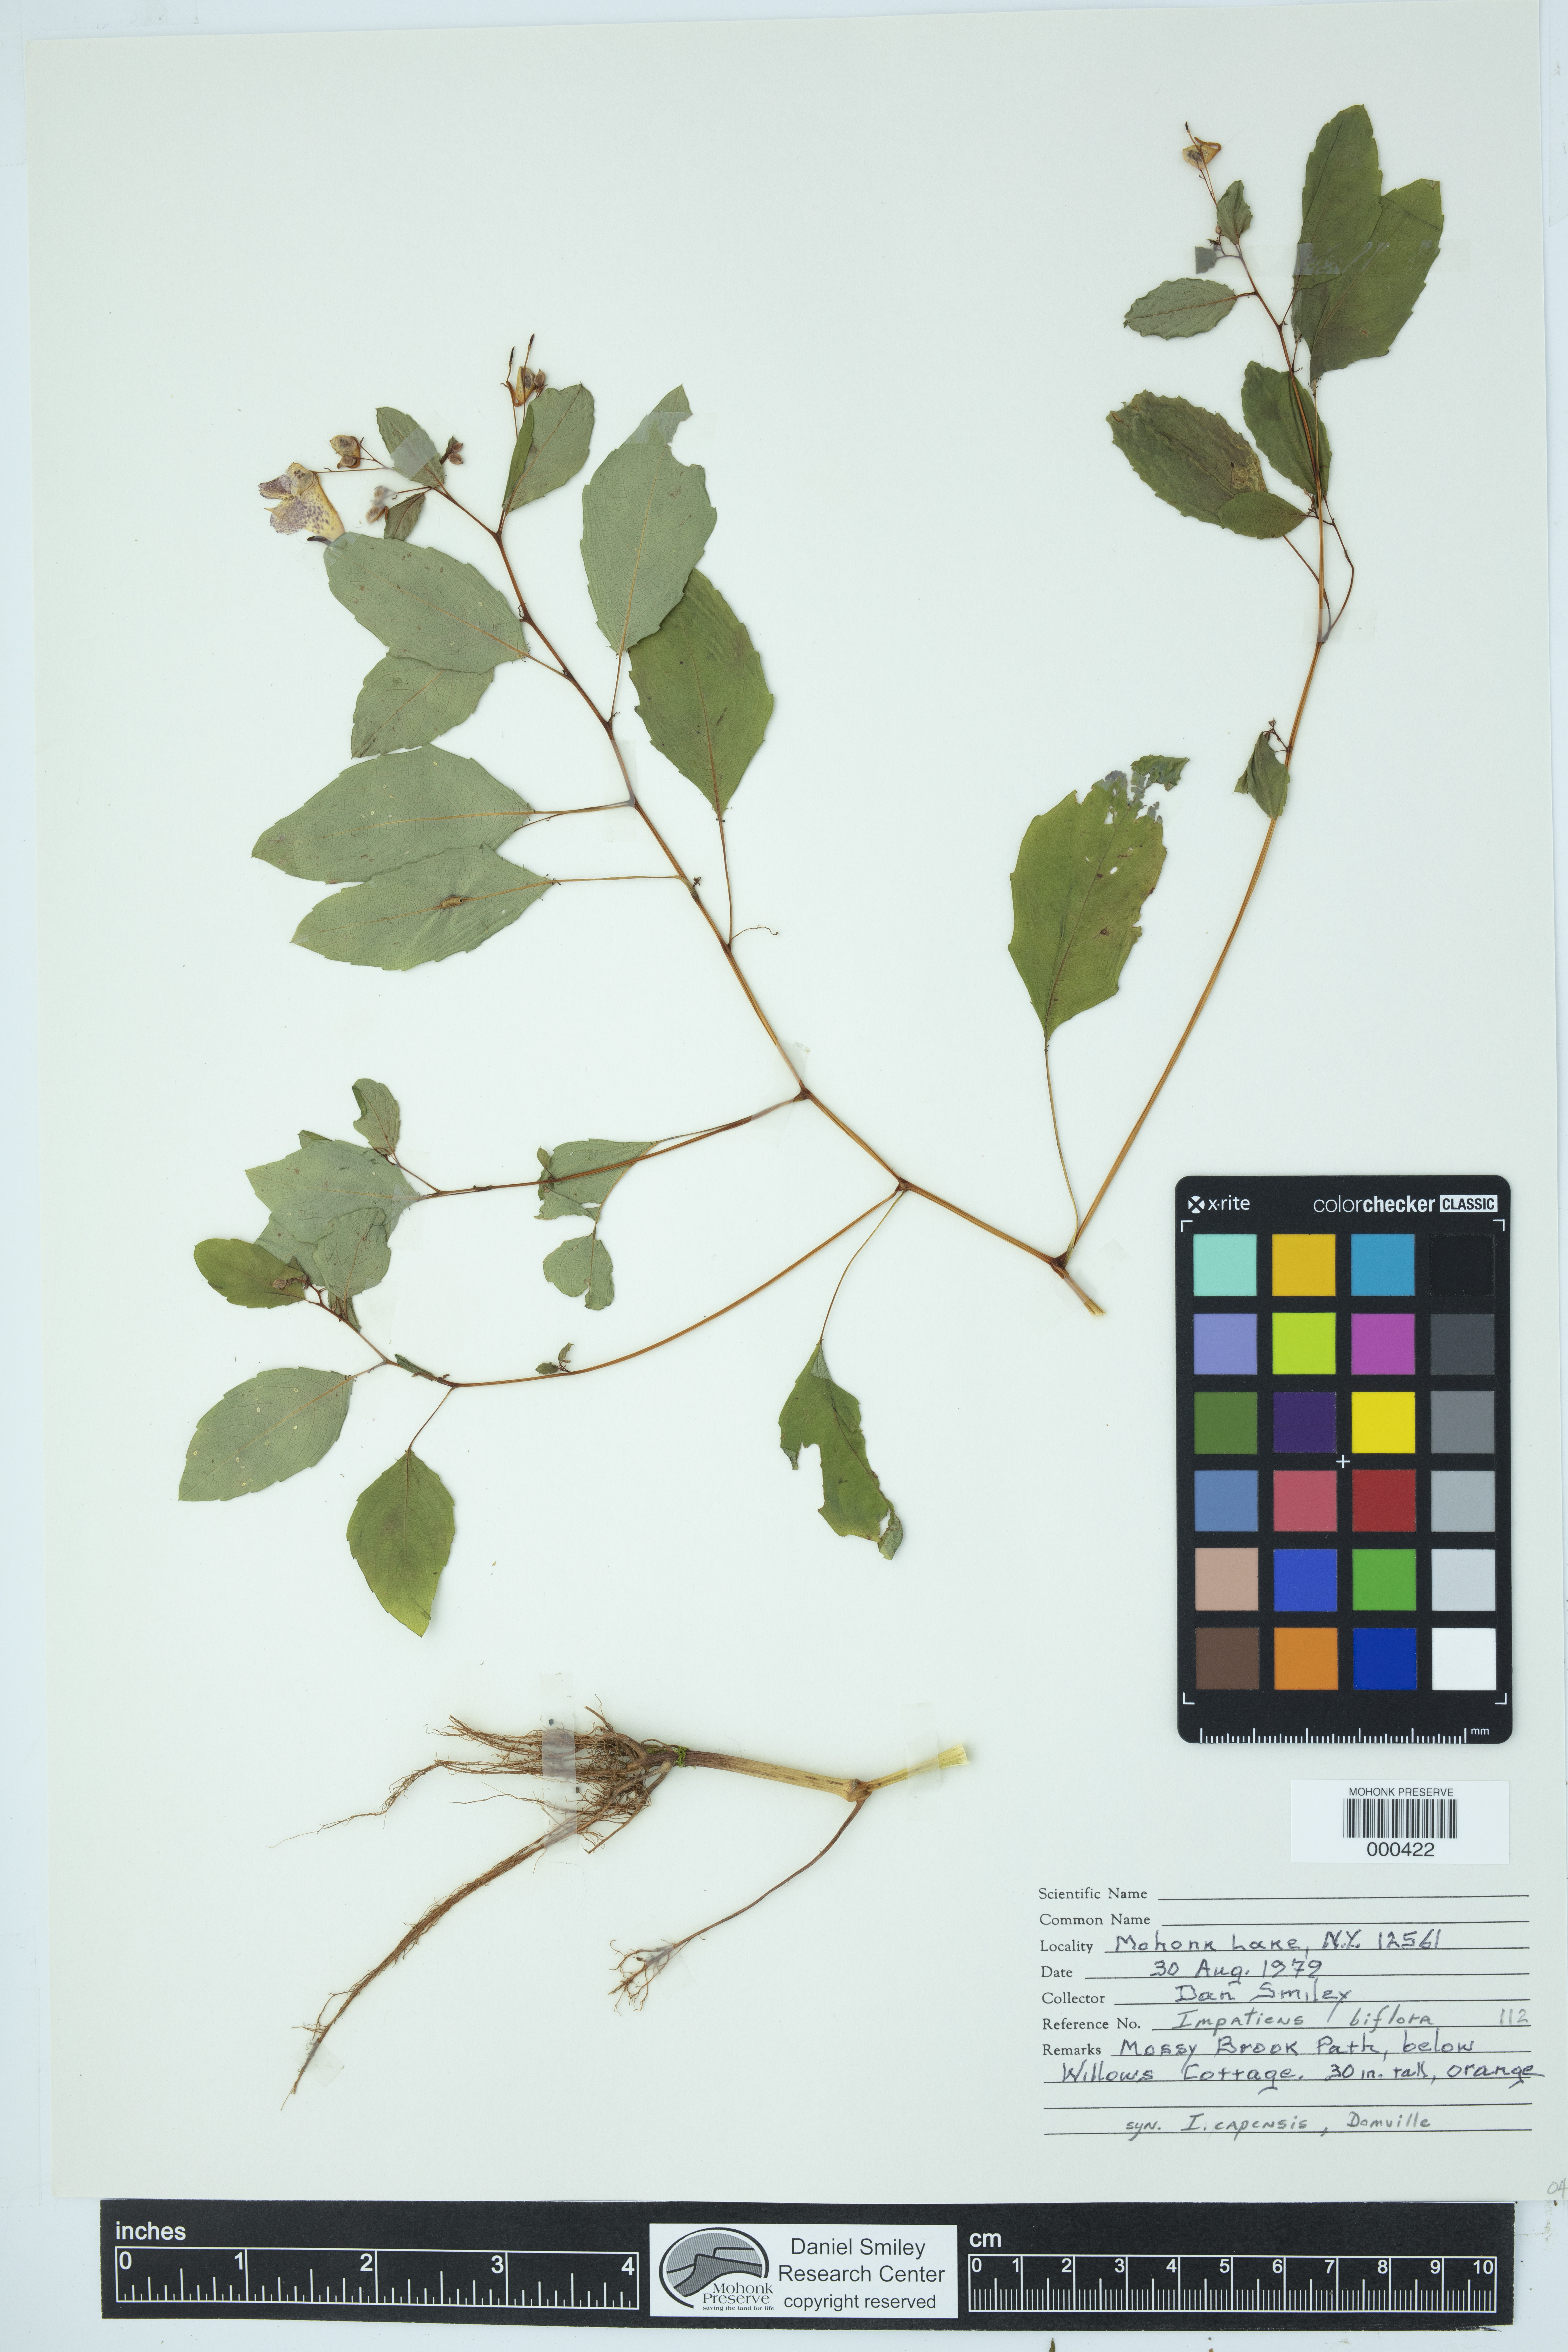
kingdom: Plantae
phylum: Tracheophyta
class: Magnoliopsida
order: Ericales
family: Balsaminaceae
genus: Impatiens
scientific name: Impatiens capensis
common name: Orange balsam
